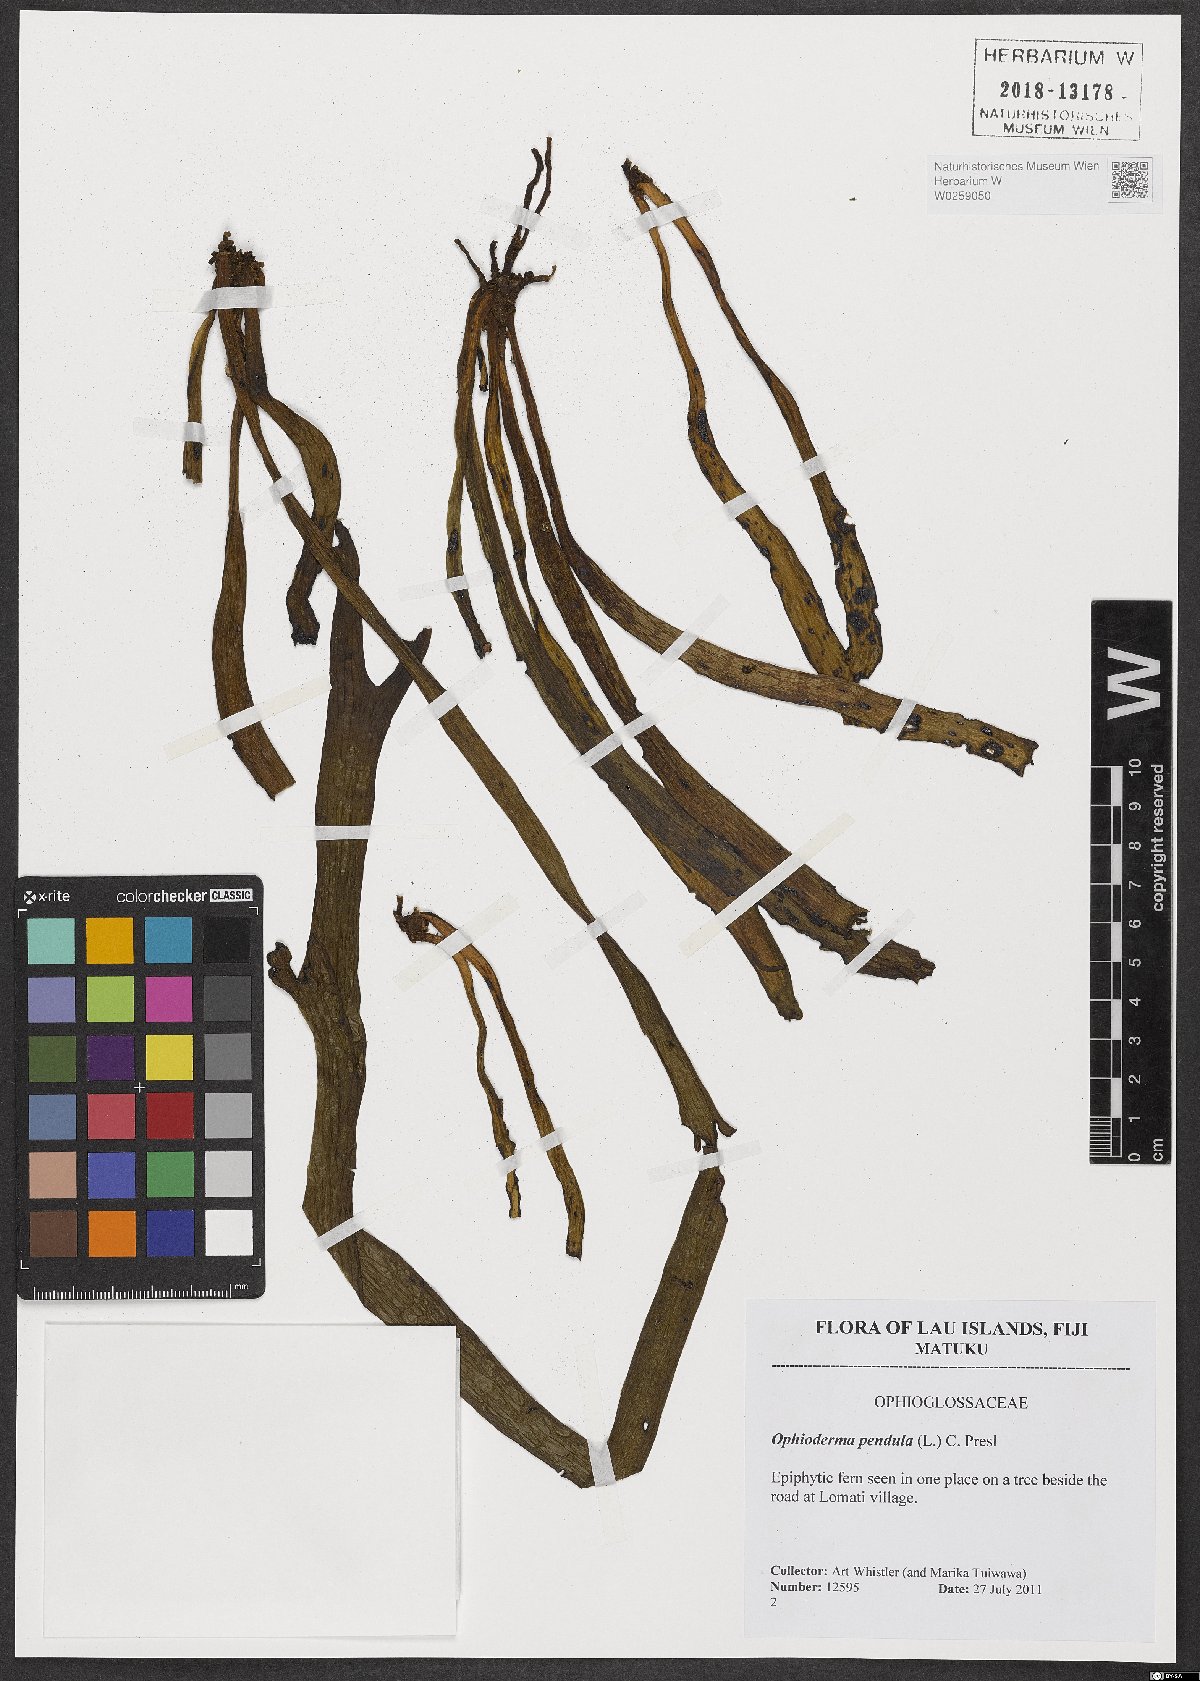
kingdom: Plantae
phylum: Tracheophyta
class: Polypodiopsida
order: Ophioglossales
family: Ophioglossaceae
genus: Ophioderma
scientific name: Ophioderma pendulum
